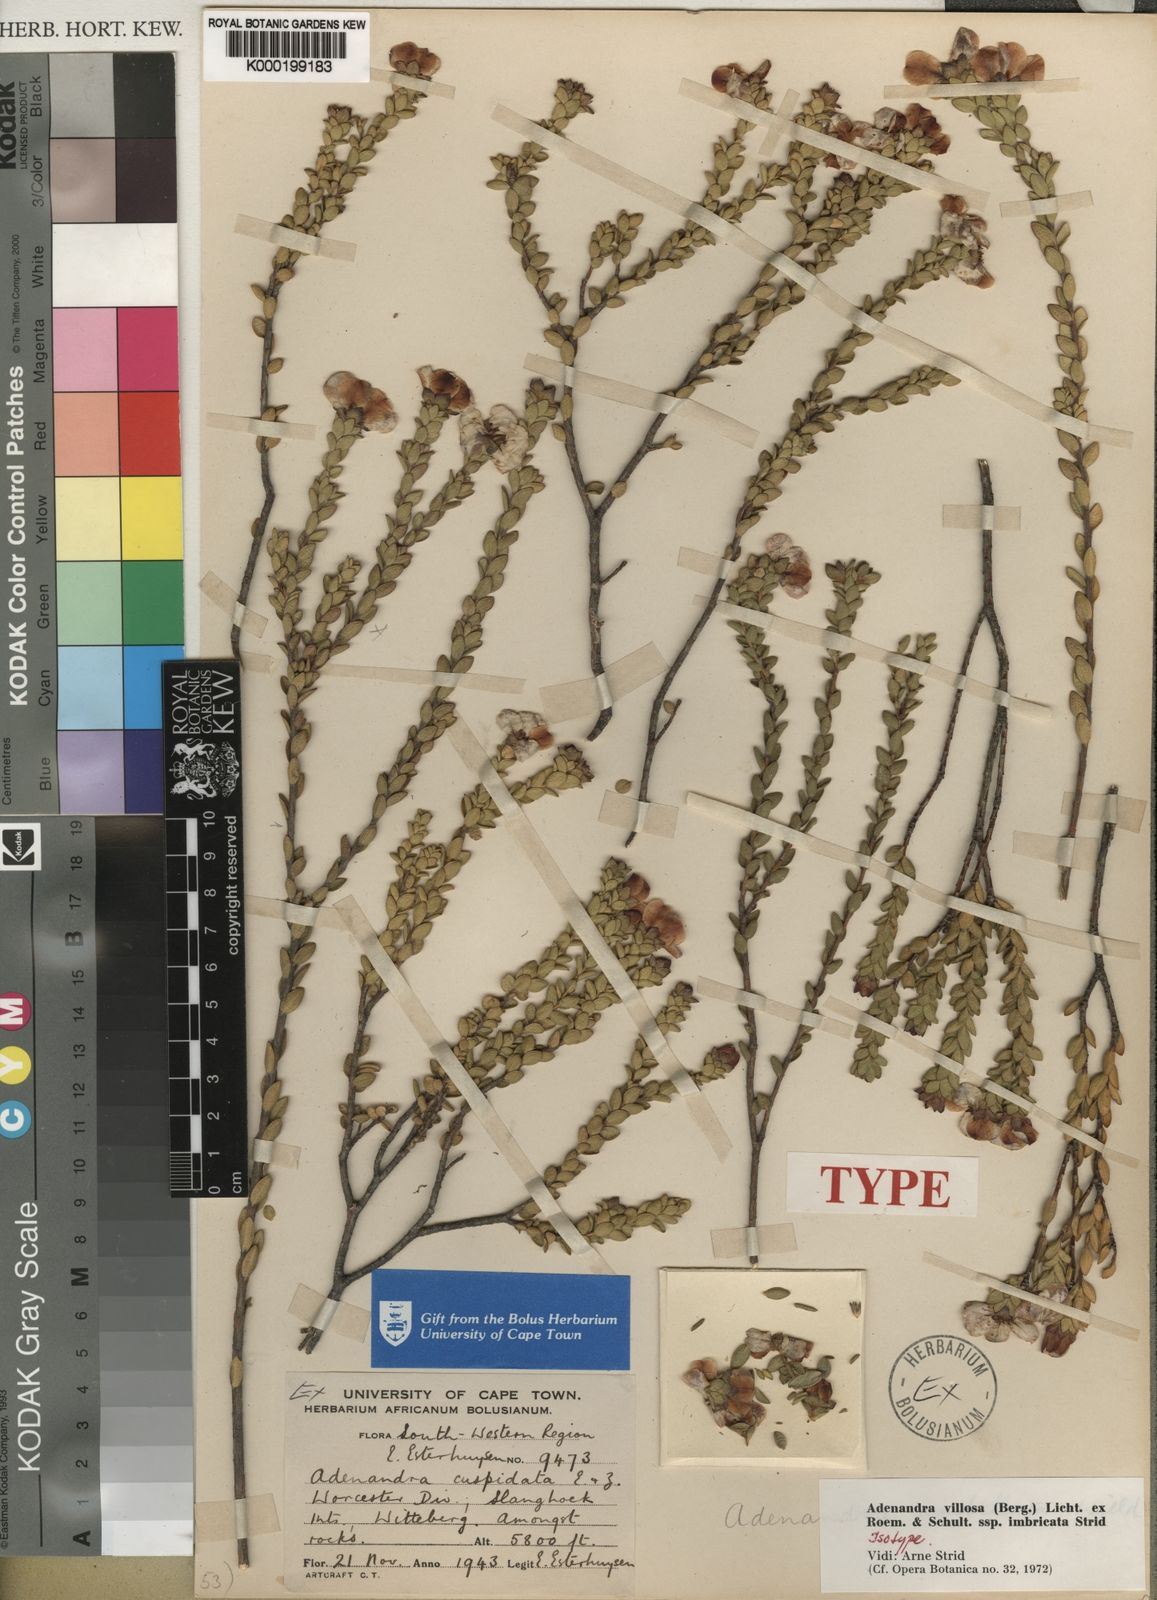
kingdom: Plantae
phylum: Tracheophyta
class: Magnoliopsida
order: Sapindales
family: Rutaceae
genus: Adenandra
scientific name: Adenandra villosa
